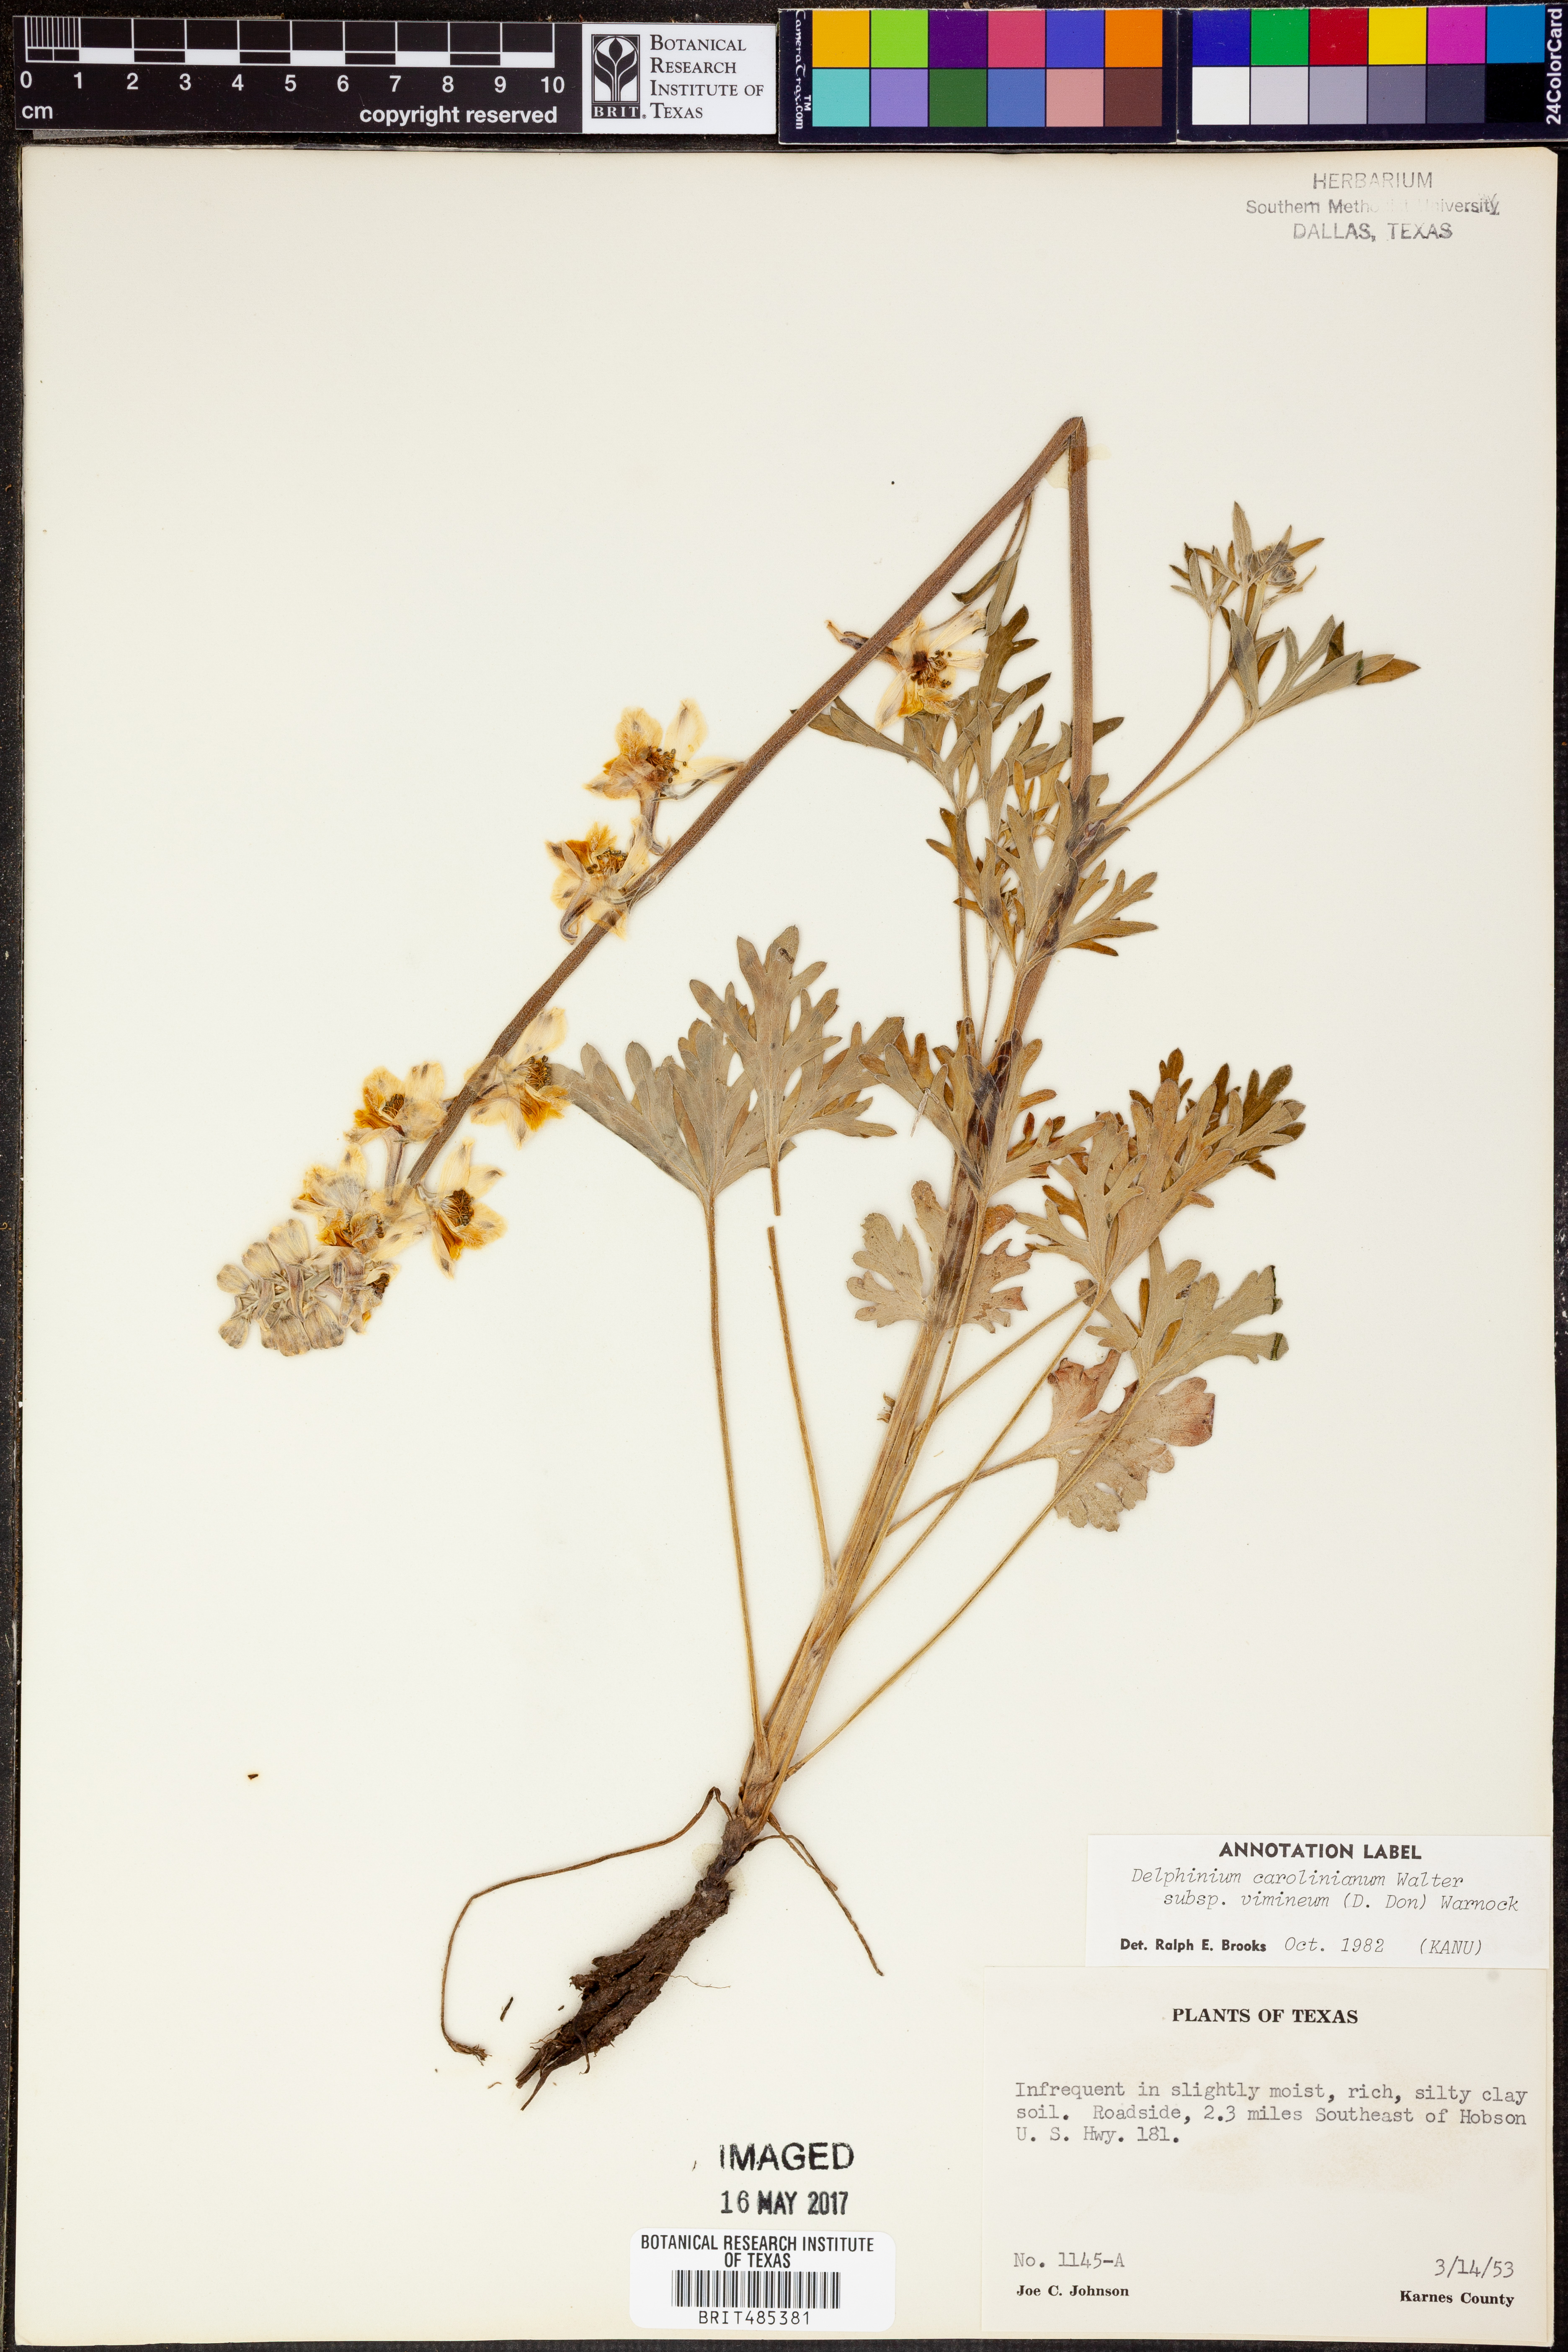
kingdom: Plantae
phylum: Tracheophyta
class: Magnoliopsida
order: Ranunculales
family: Ranunculaceae
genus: Delphinium
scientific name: Delphinium carolinianum
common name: Carolina larkspur
